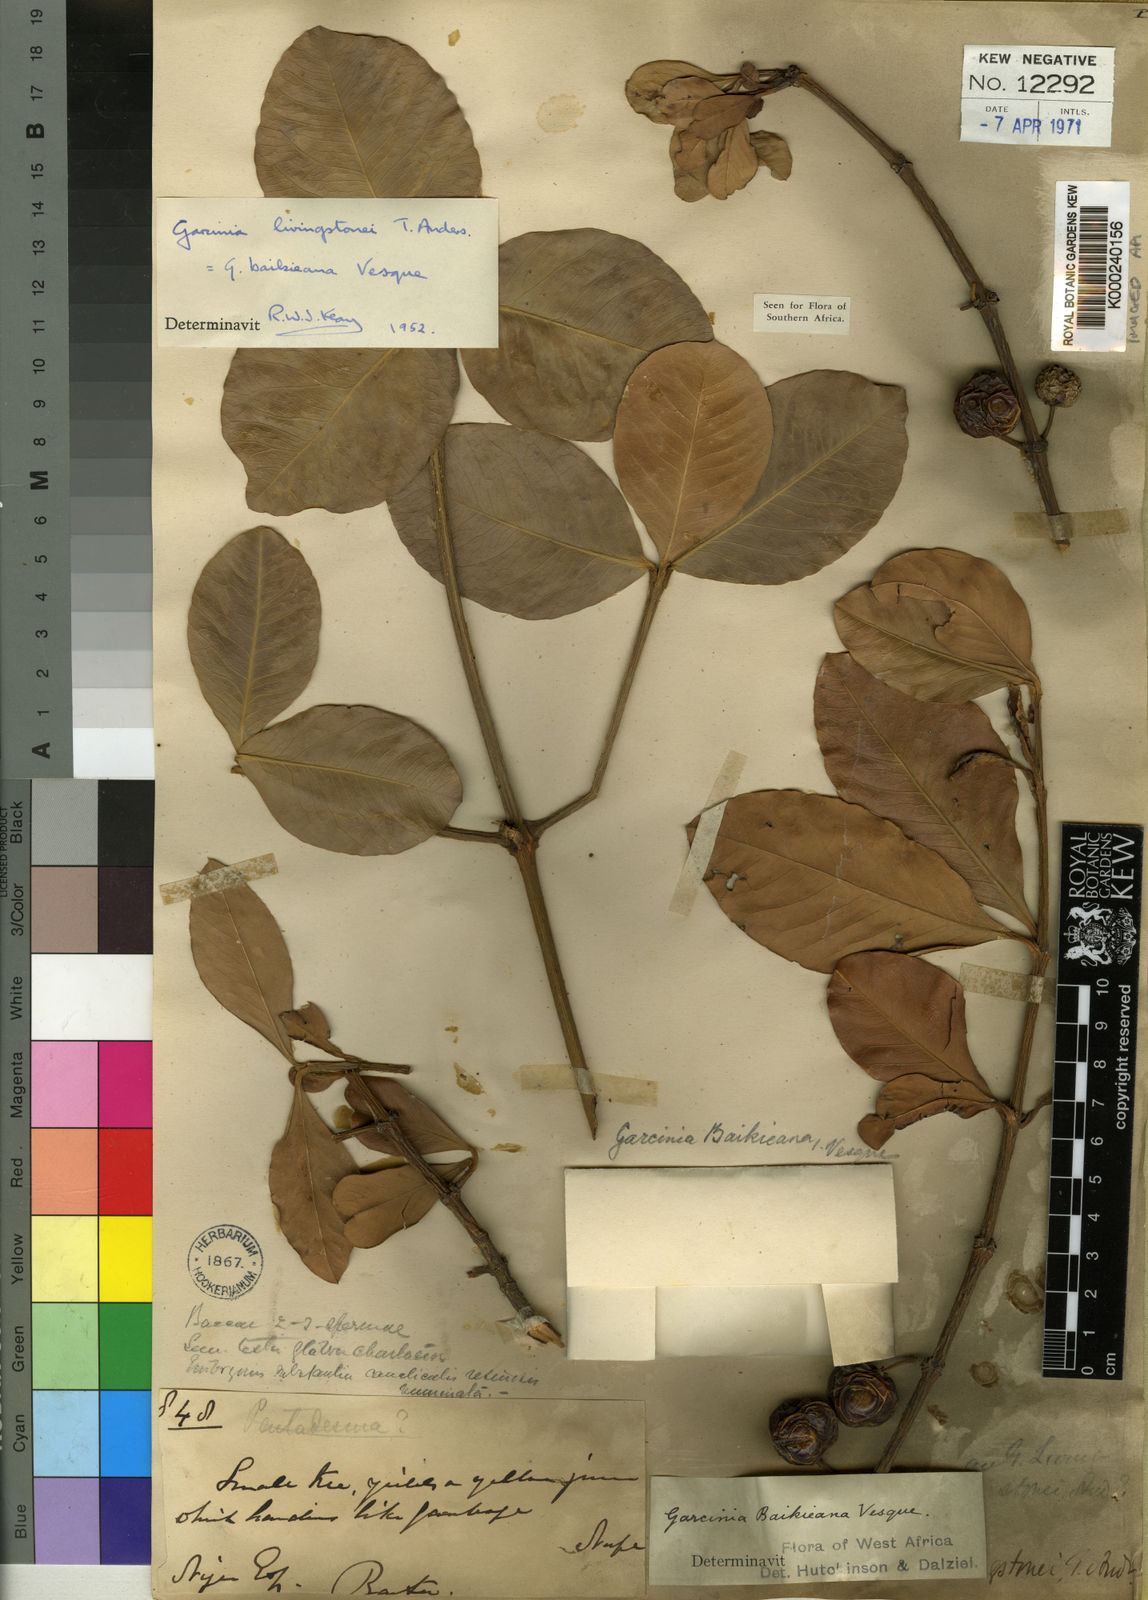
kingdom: Plantae
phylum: Tracheophyta
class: Magnoliopsida
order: Malpighiales
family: Clusiaceae
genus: Garcinia
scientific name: Garcinia livingstonei
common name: African mangosteen
